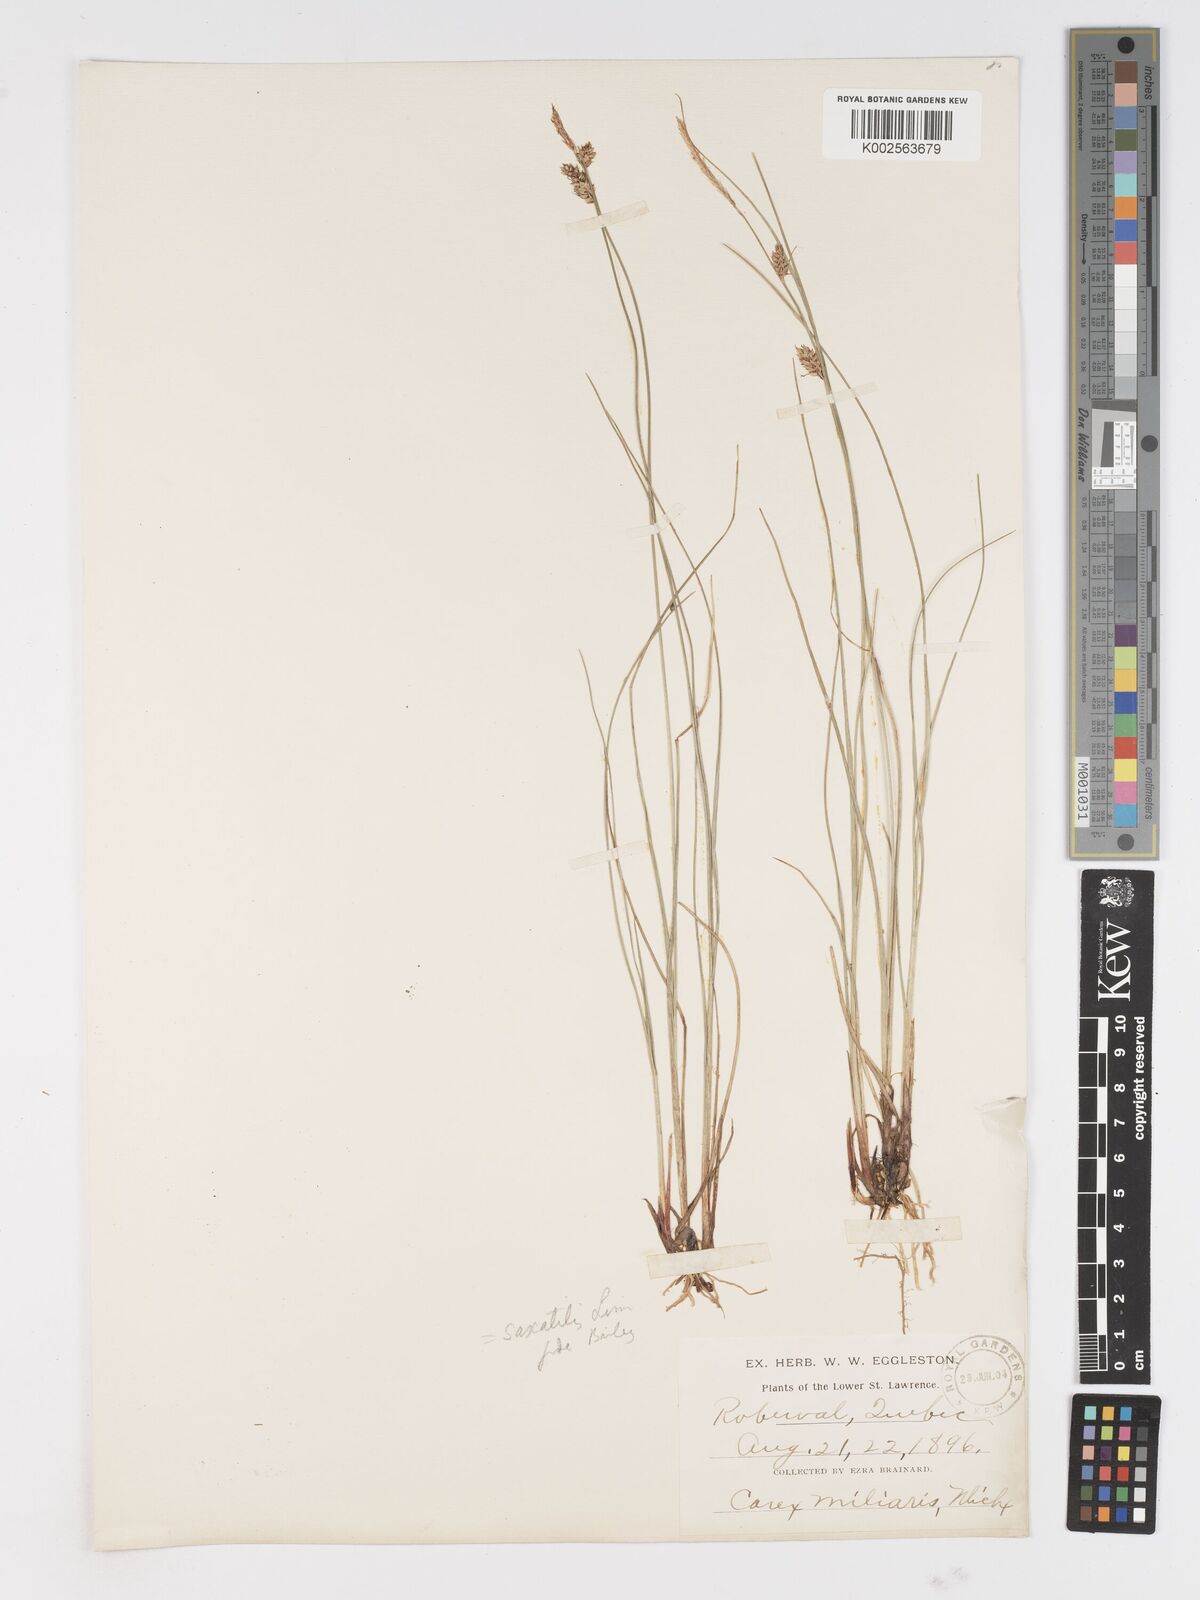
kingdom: Plantae
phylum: Tracheophyta
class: Liliopsida
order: Poales
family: Cyperaceae
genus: Carex
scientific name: Carex saxatilis
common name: Russet sedge
